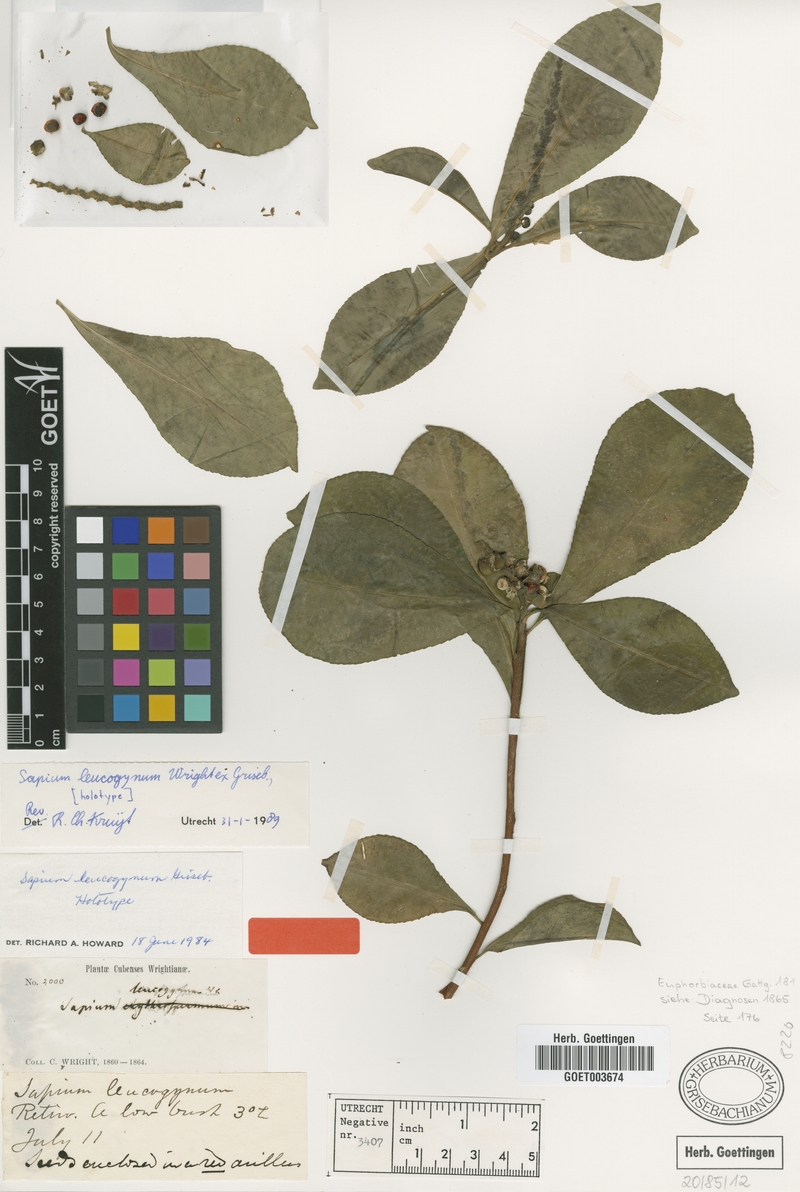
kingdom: Plantae
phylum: Tracheophyta
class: Magnoliopsida
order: Malpighiales
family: Euphorbiaceae
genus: Sapium
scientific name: Sapium leucogynum
